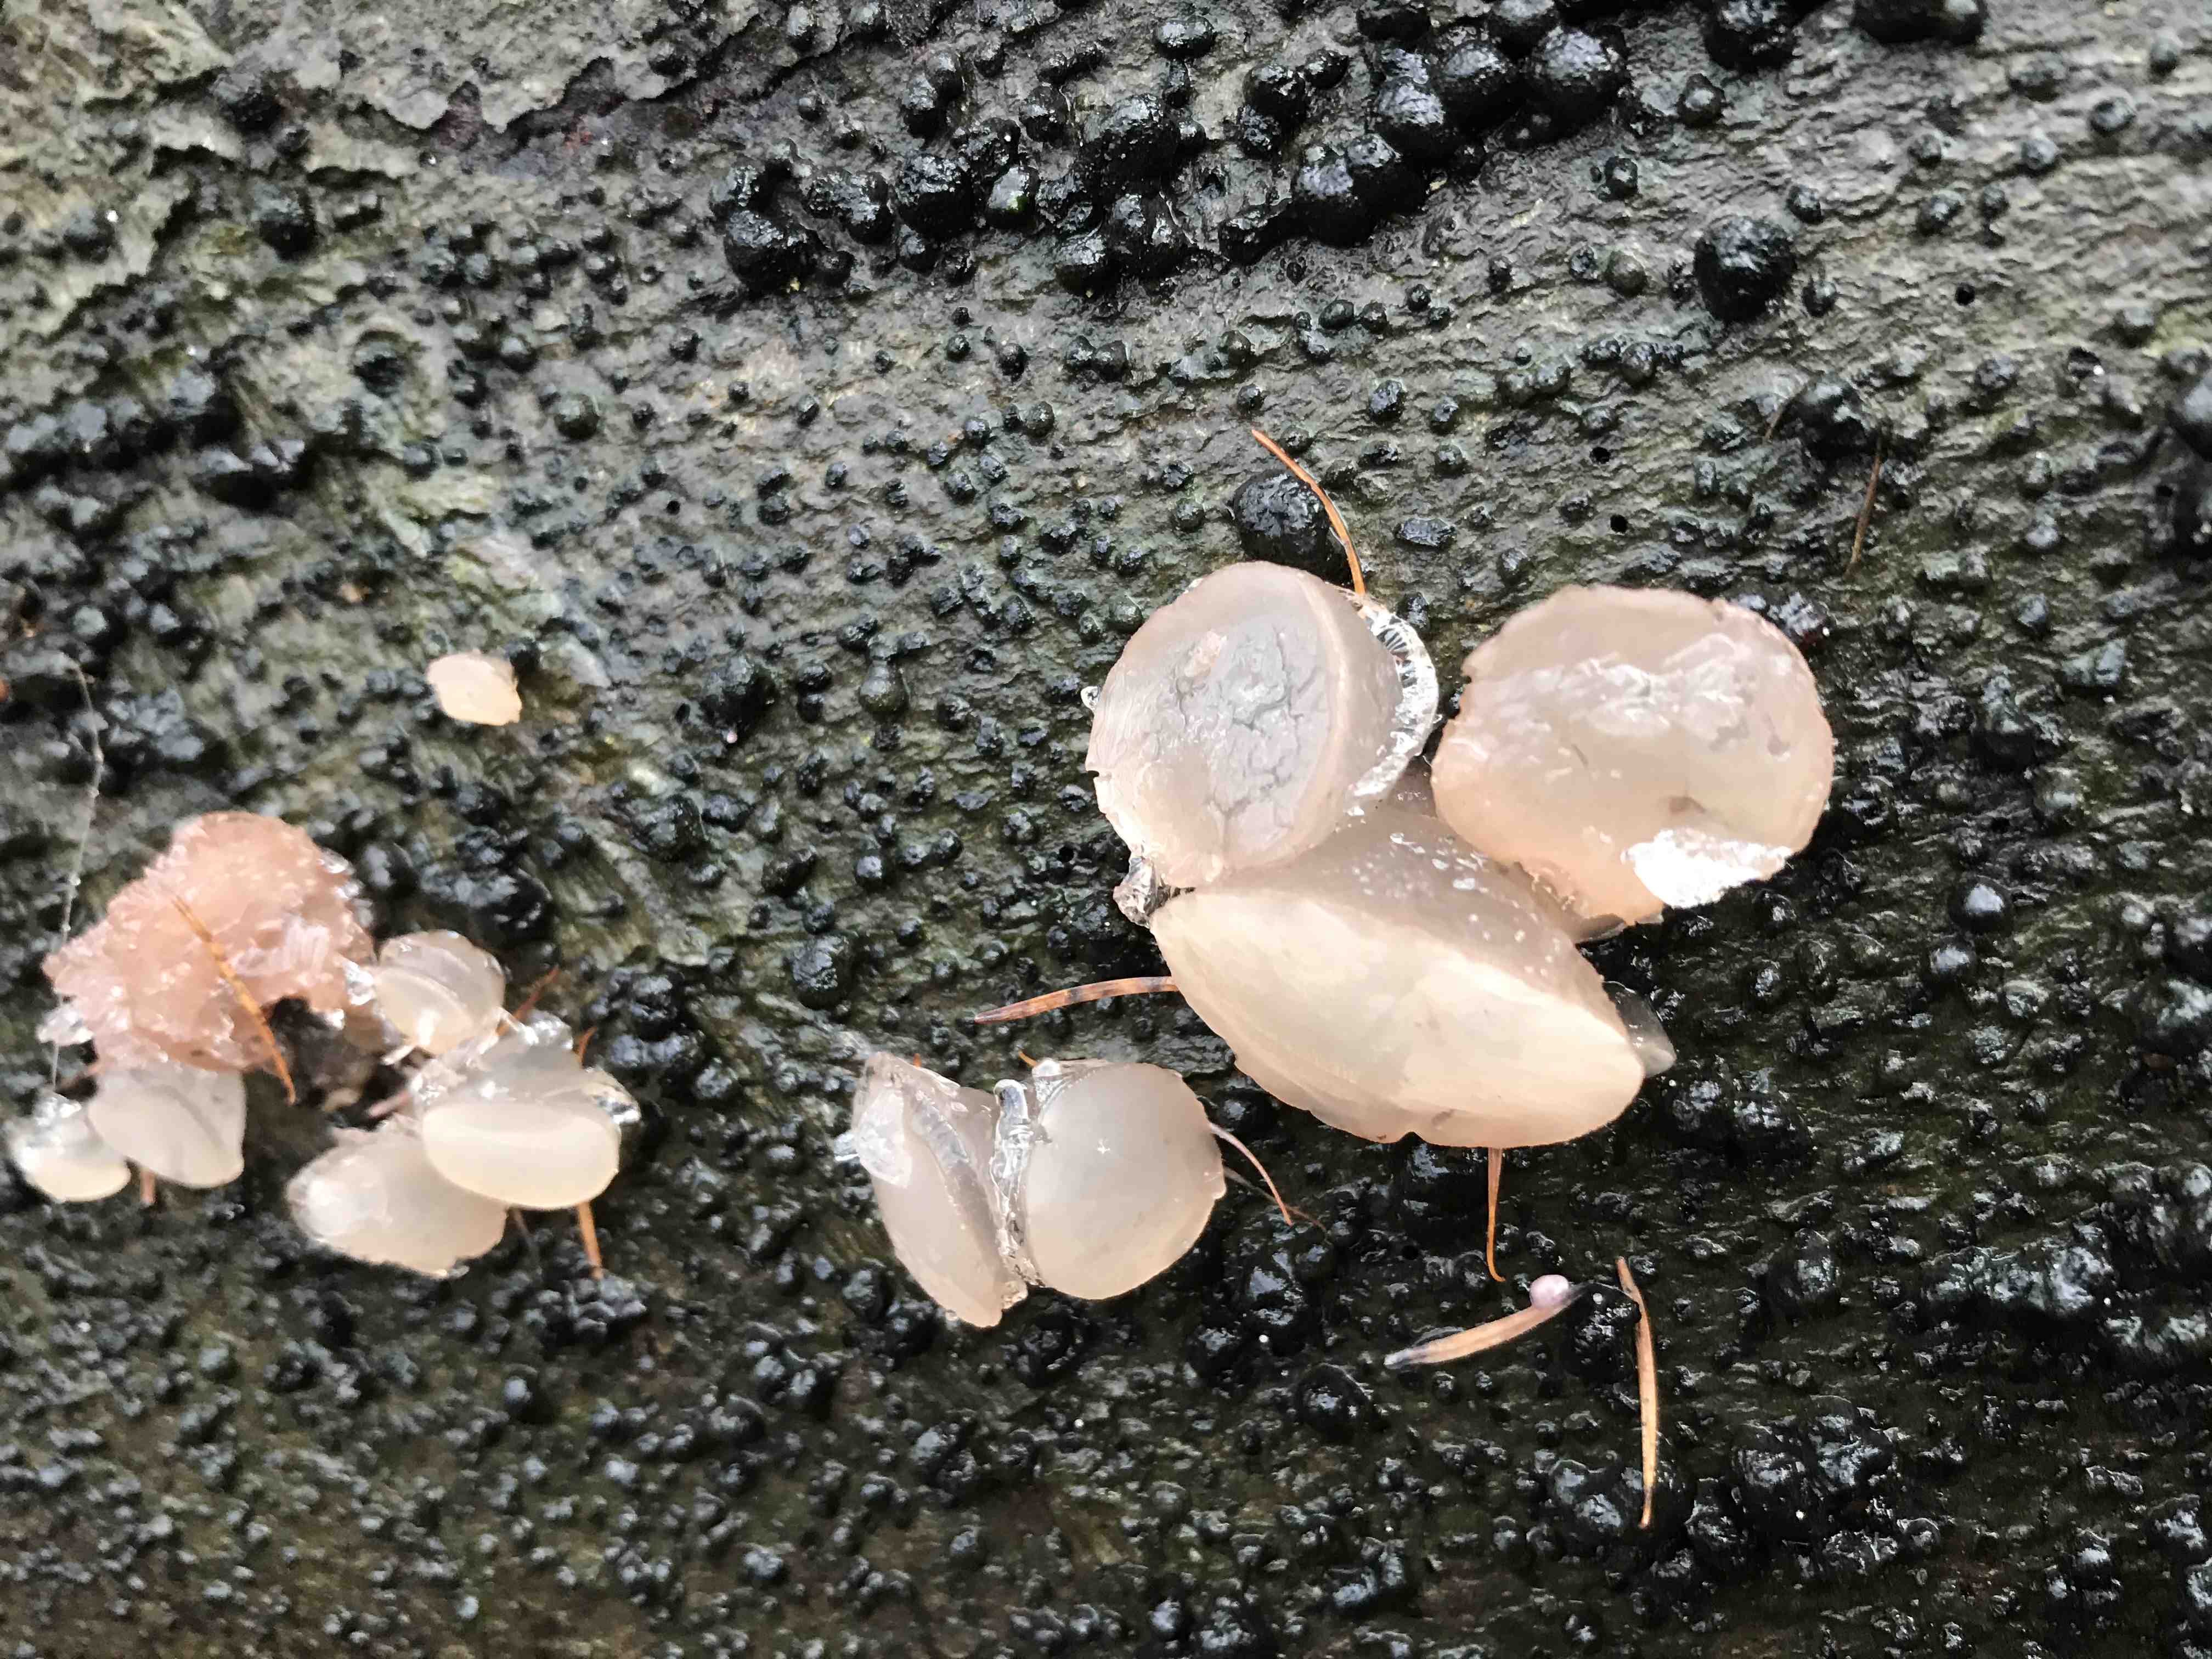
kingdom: Fungi
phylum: Ascomycota
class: Leotiomycetes
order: Helotiales
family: Gelatinodiscaceae
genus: Neobulgaria
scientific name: Neobulgaria pura
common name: bleg bævreskive
